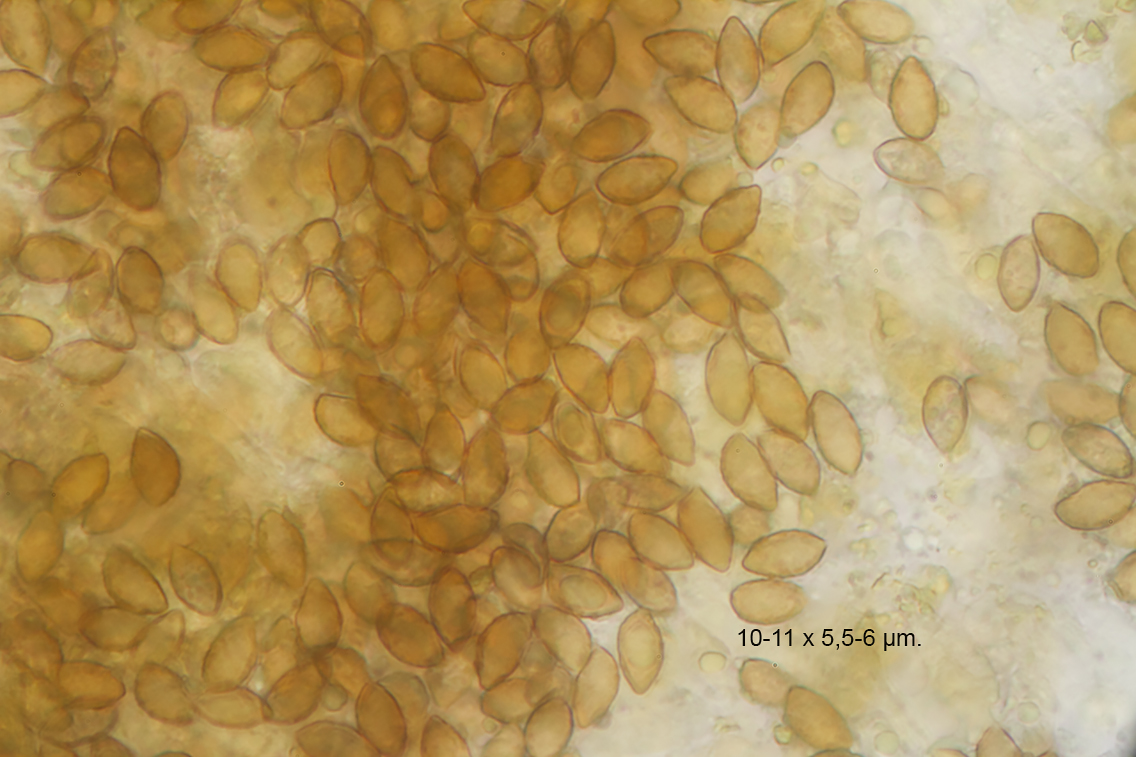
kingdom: Fungi
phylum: Basidiomycota
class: Agaricomycetes
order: Agaricales
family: Cortinariaceae
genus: Calonarius
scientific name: Calonarius splendens
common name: sirene-slørhat
